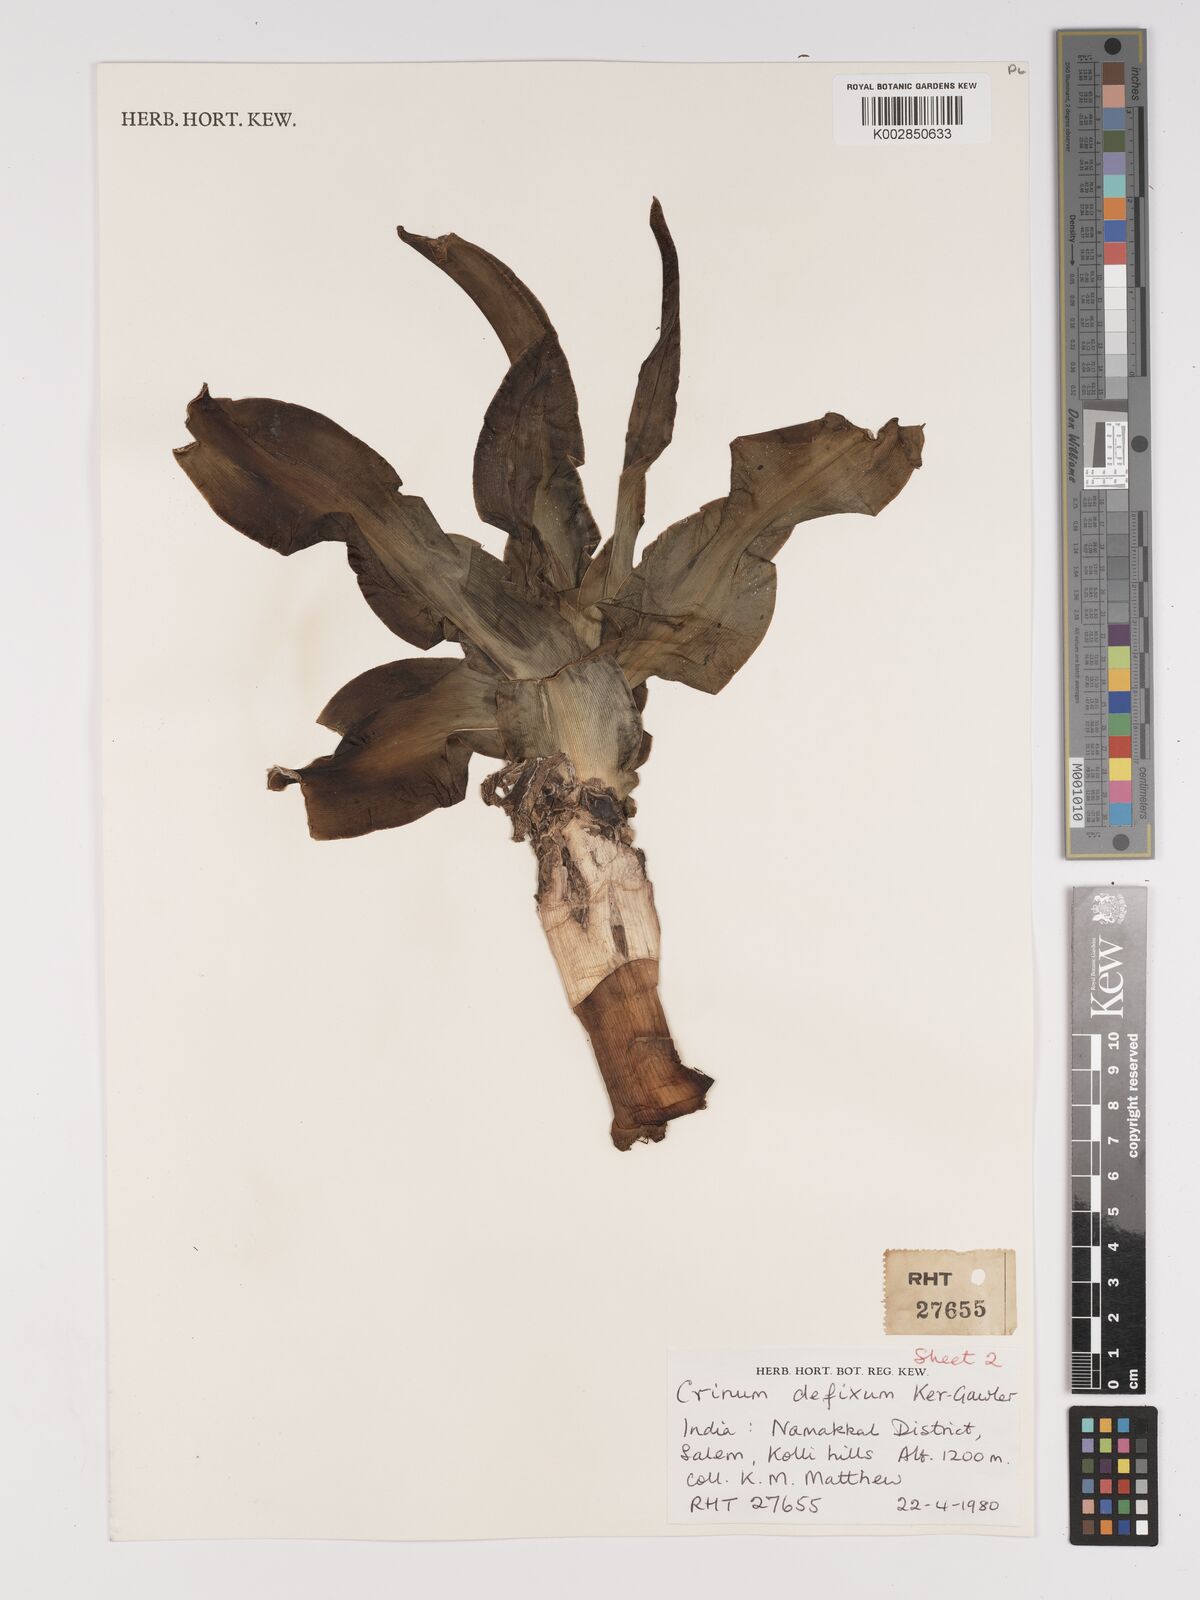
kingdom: Plantae
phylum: Tracheophyta
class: Liliopsida
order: Asparagales
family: Amaryllidaceae
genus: Crinum
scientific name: Crinum defixum
